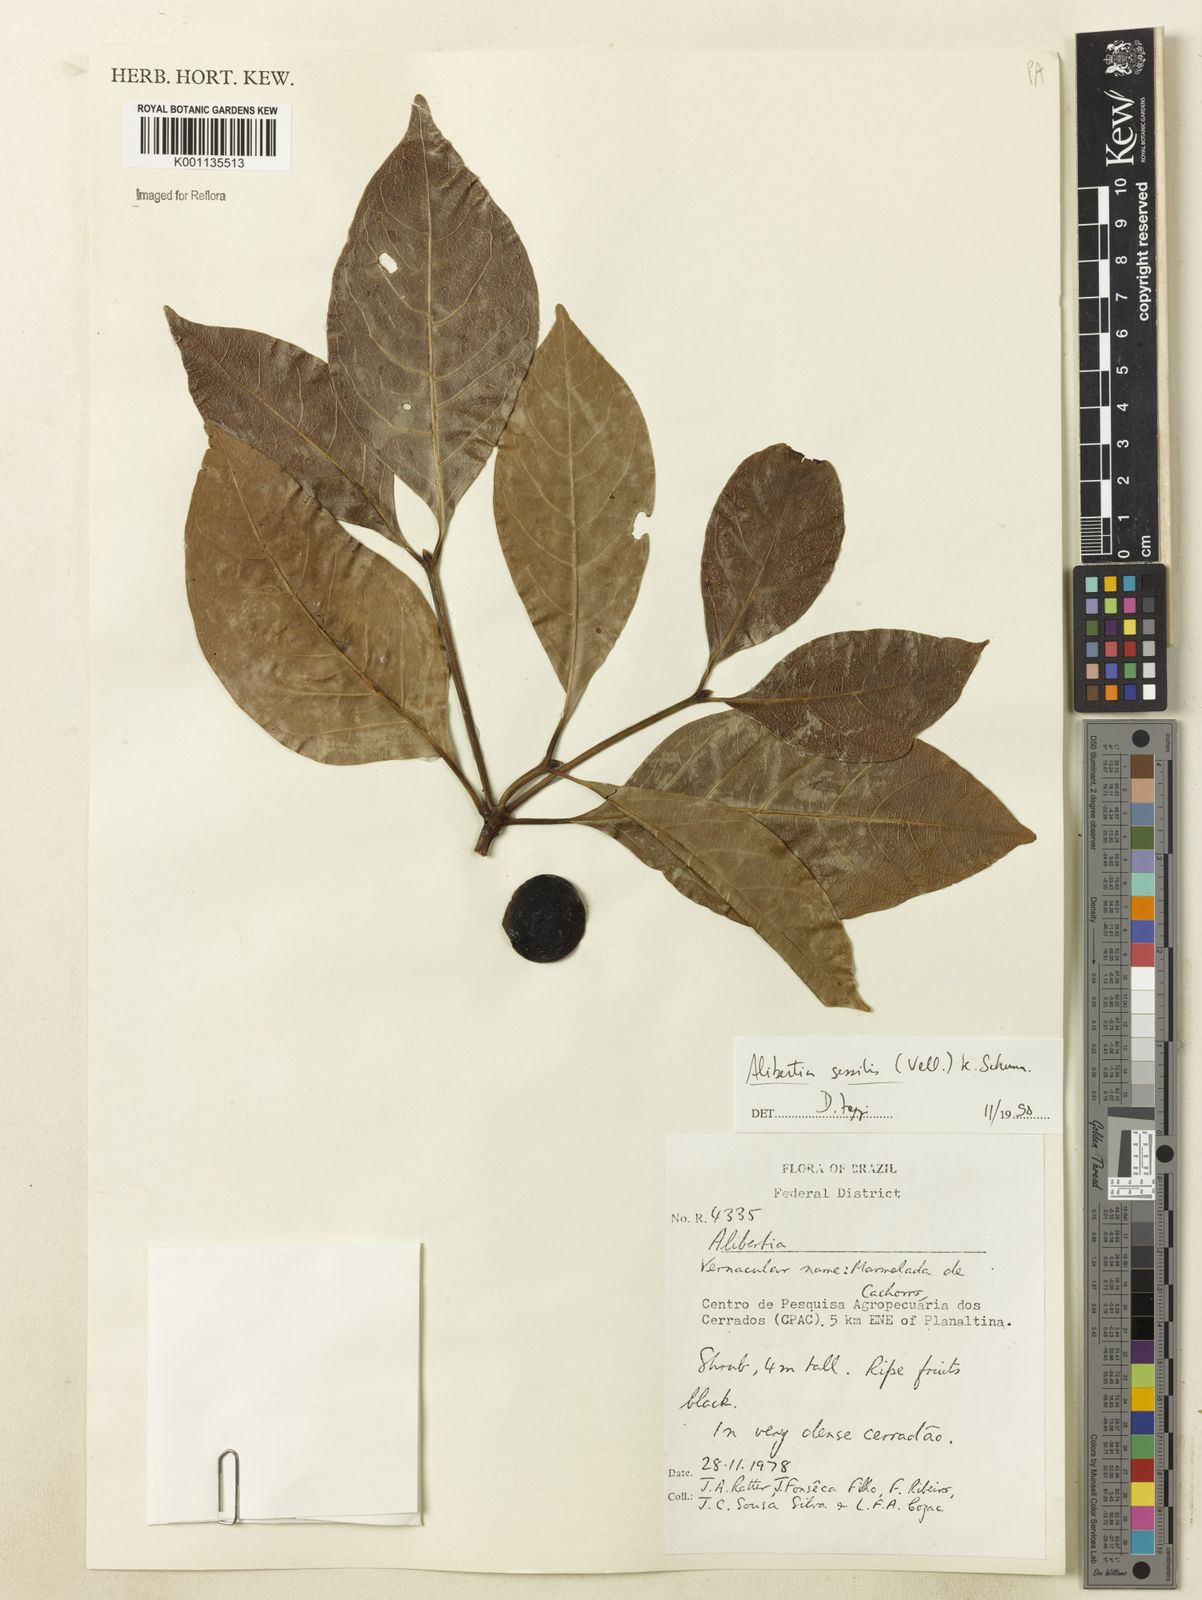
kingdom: Plantae
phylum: Tracheophyta
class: Magnoliopsida
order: Gentianales
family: Rubiaceae
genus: Cordiera
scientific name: Cordiera sessilis
